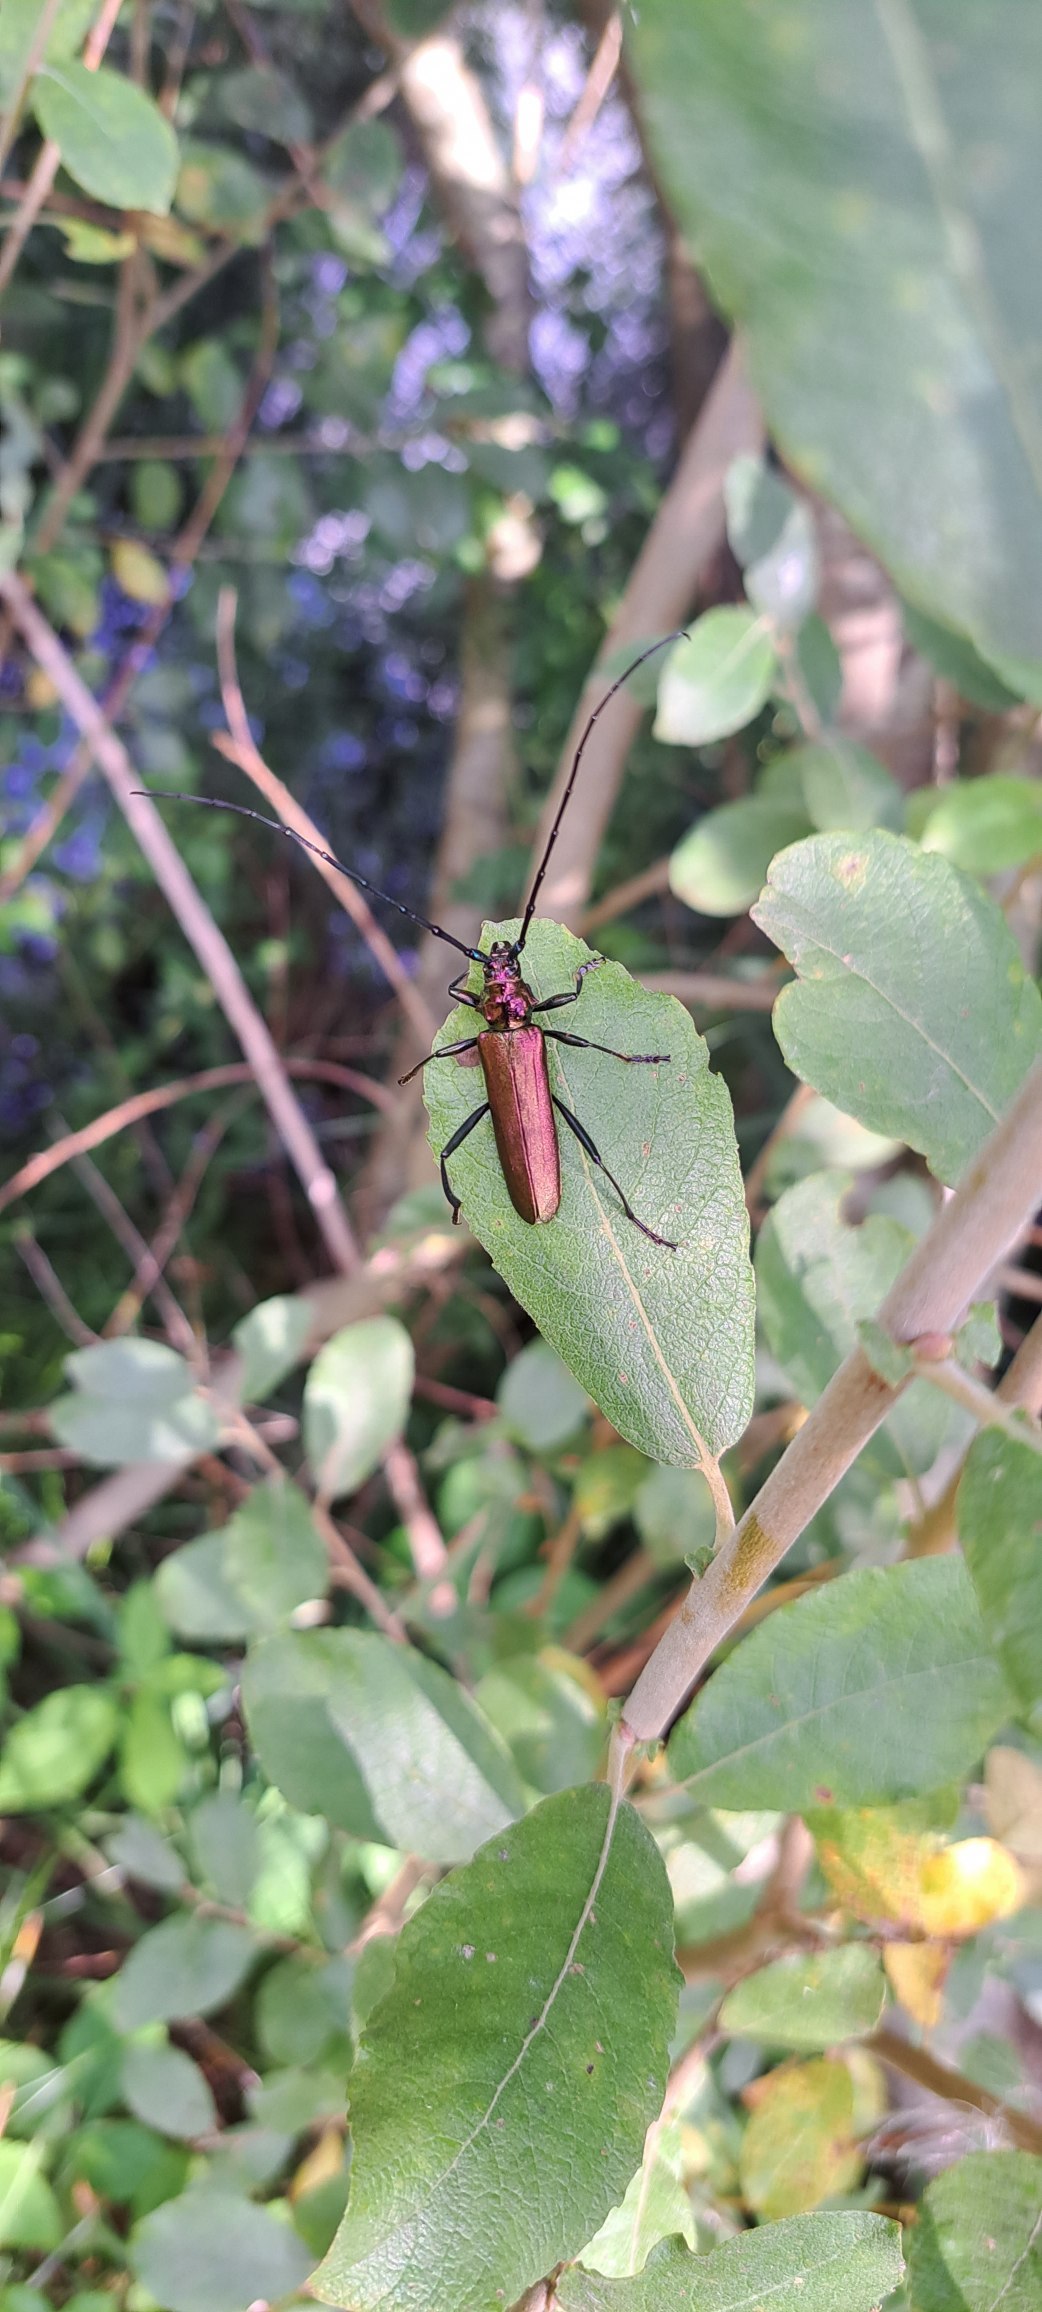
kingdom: Animalia
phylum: Arthropoda
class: Insecta
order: Coleoptera
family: Cerambycidae
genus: Aromia
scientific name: Aromia moschata
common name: Moskusbuk
